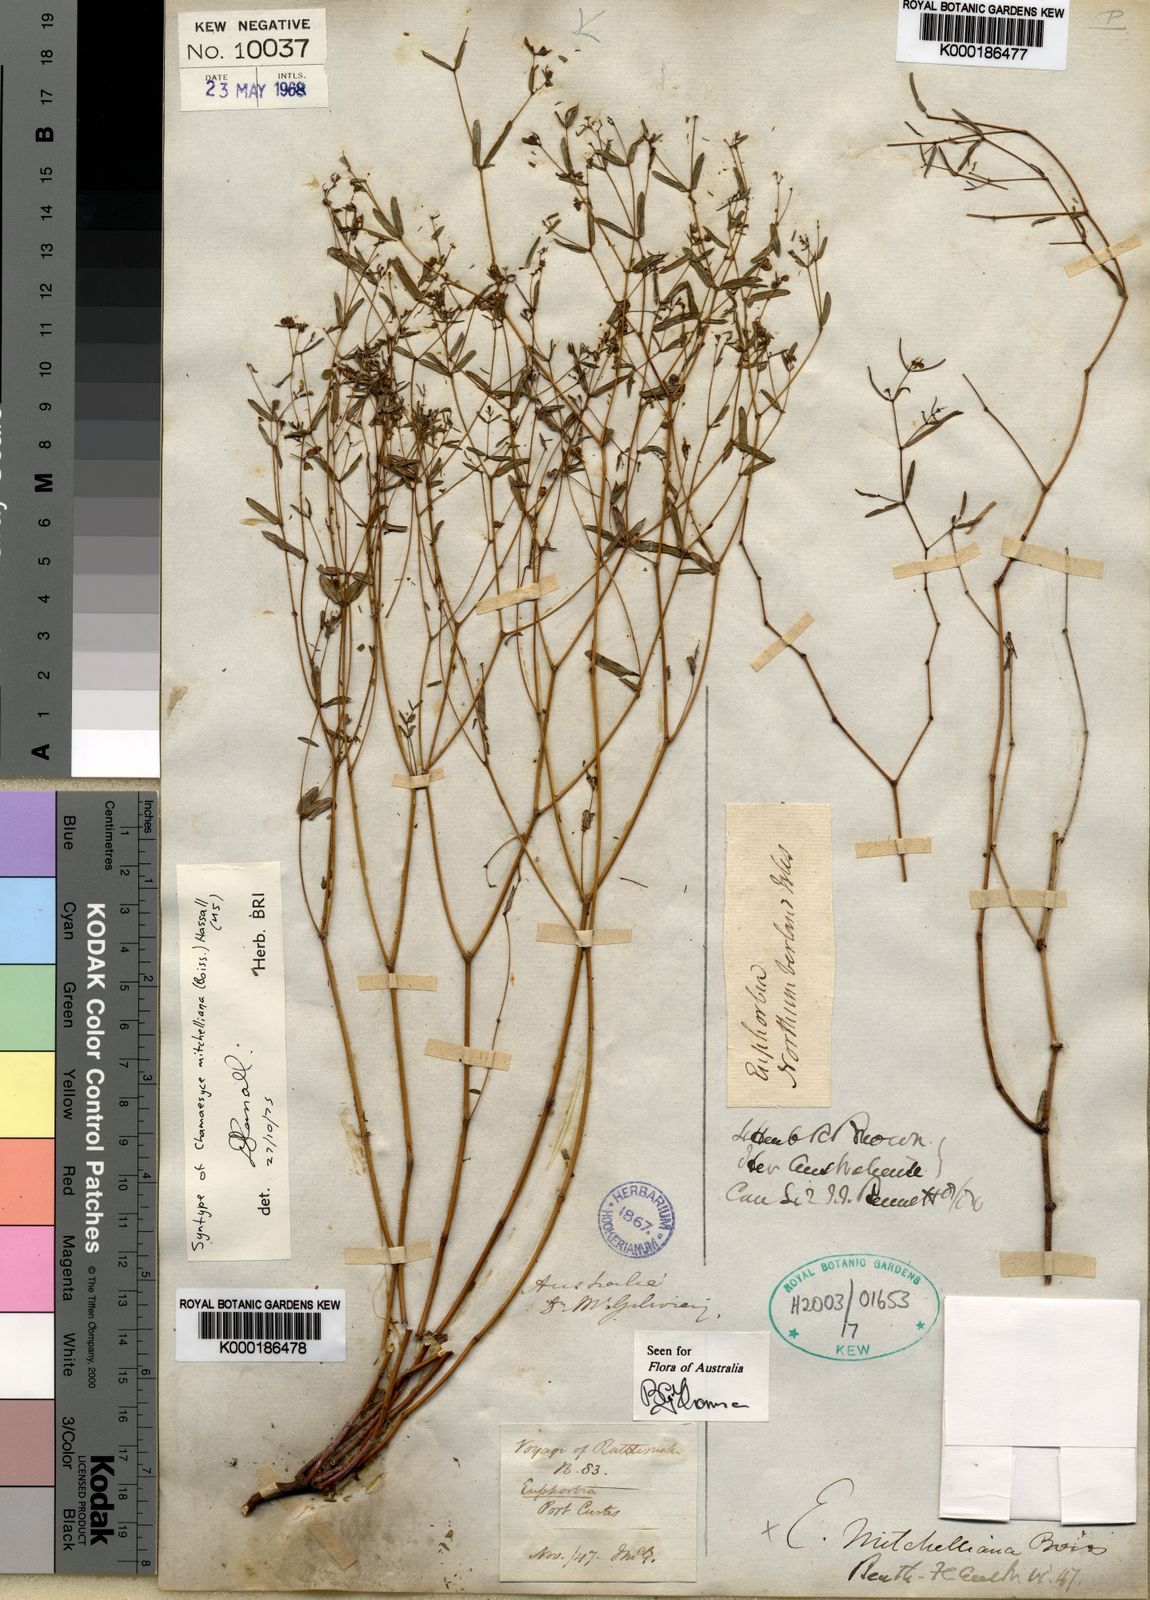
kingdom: Plantae
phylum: Tracheophyta
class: Magnoliopsida
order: Malpighiales
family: Euphorbiaceae
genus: Euphorbia
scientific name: Euphorbia mitchelliana
